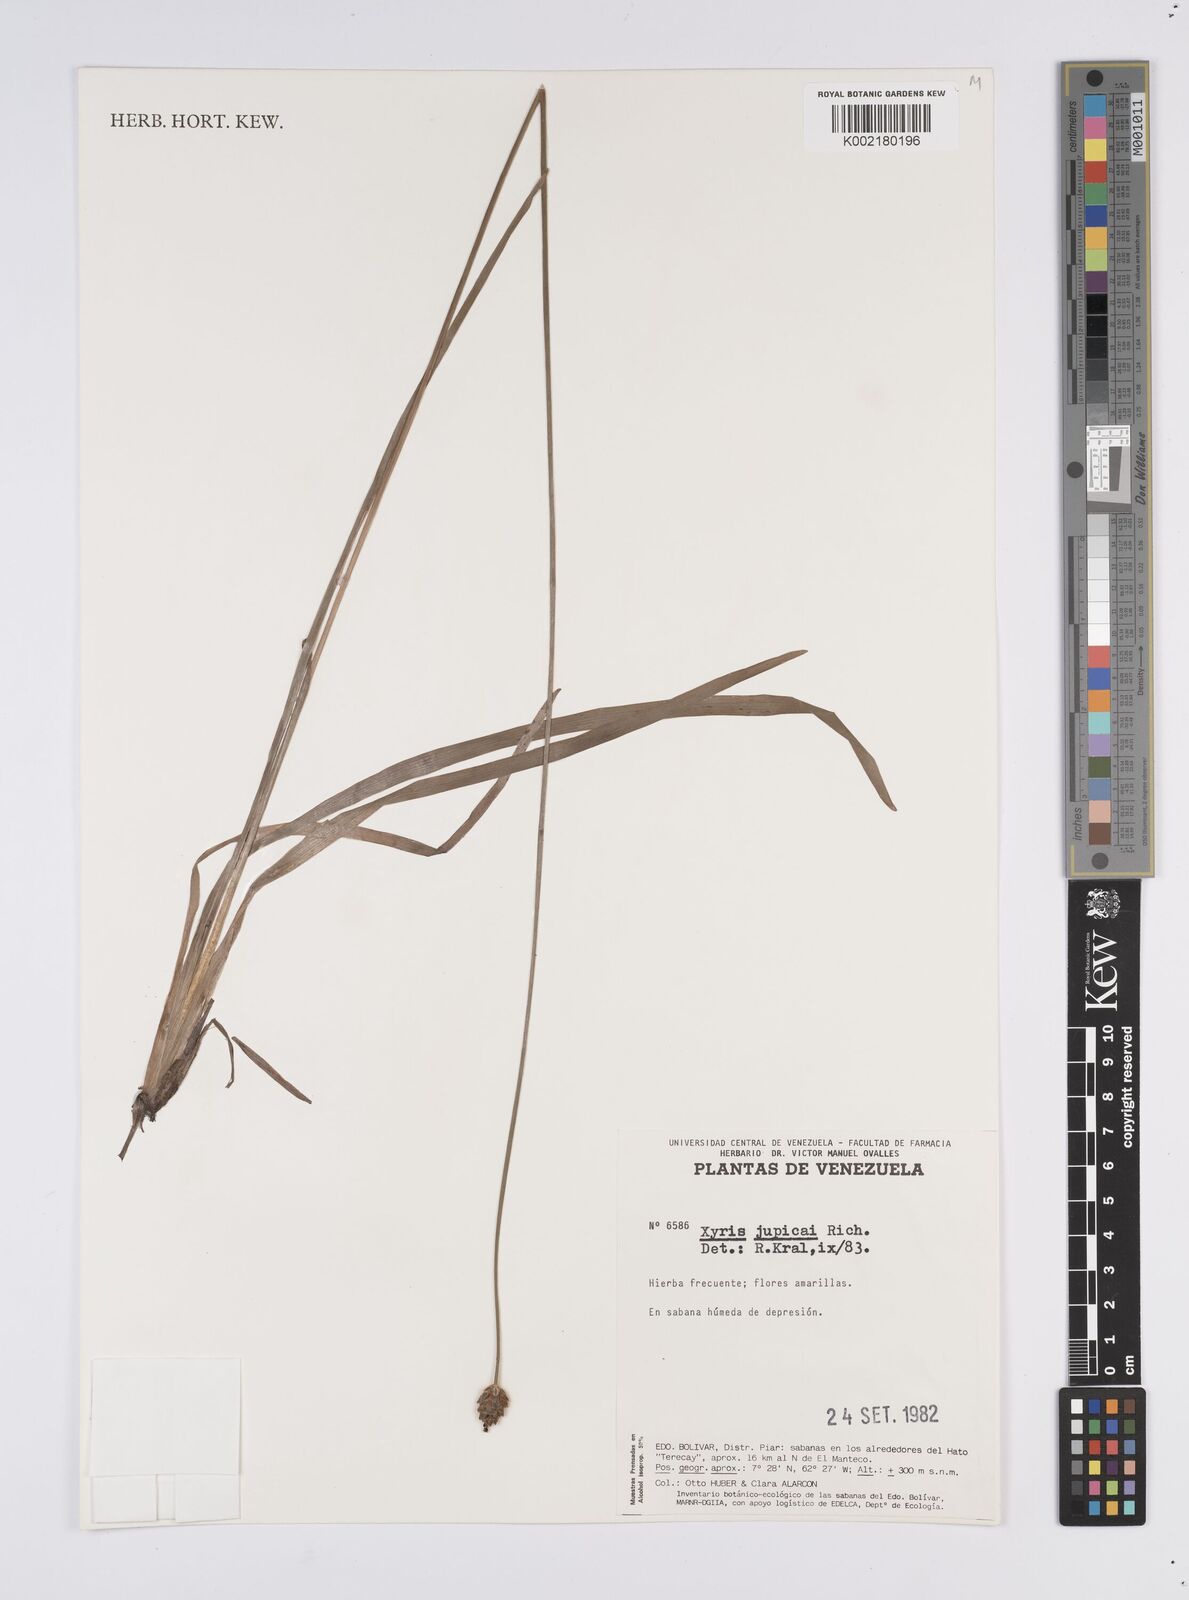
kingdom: Plantae
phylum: Tracheophyta
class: Liliopsida
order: Poales
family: Xyridaceae
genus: Xyris
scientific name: Xyris jupicai
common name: Richard's yelloweyed grass
